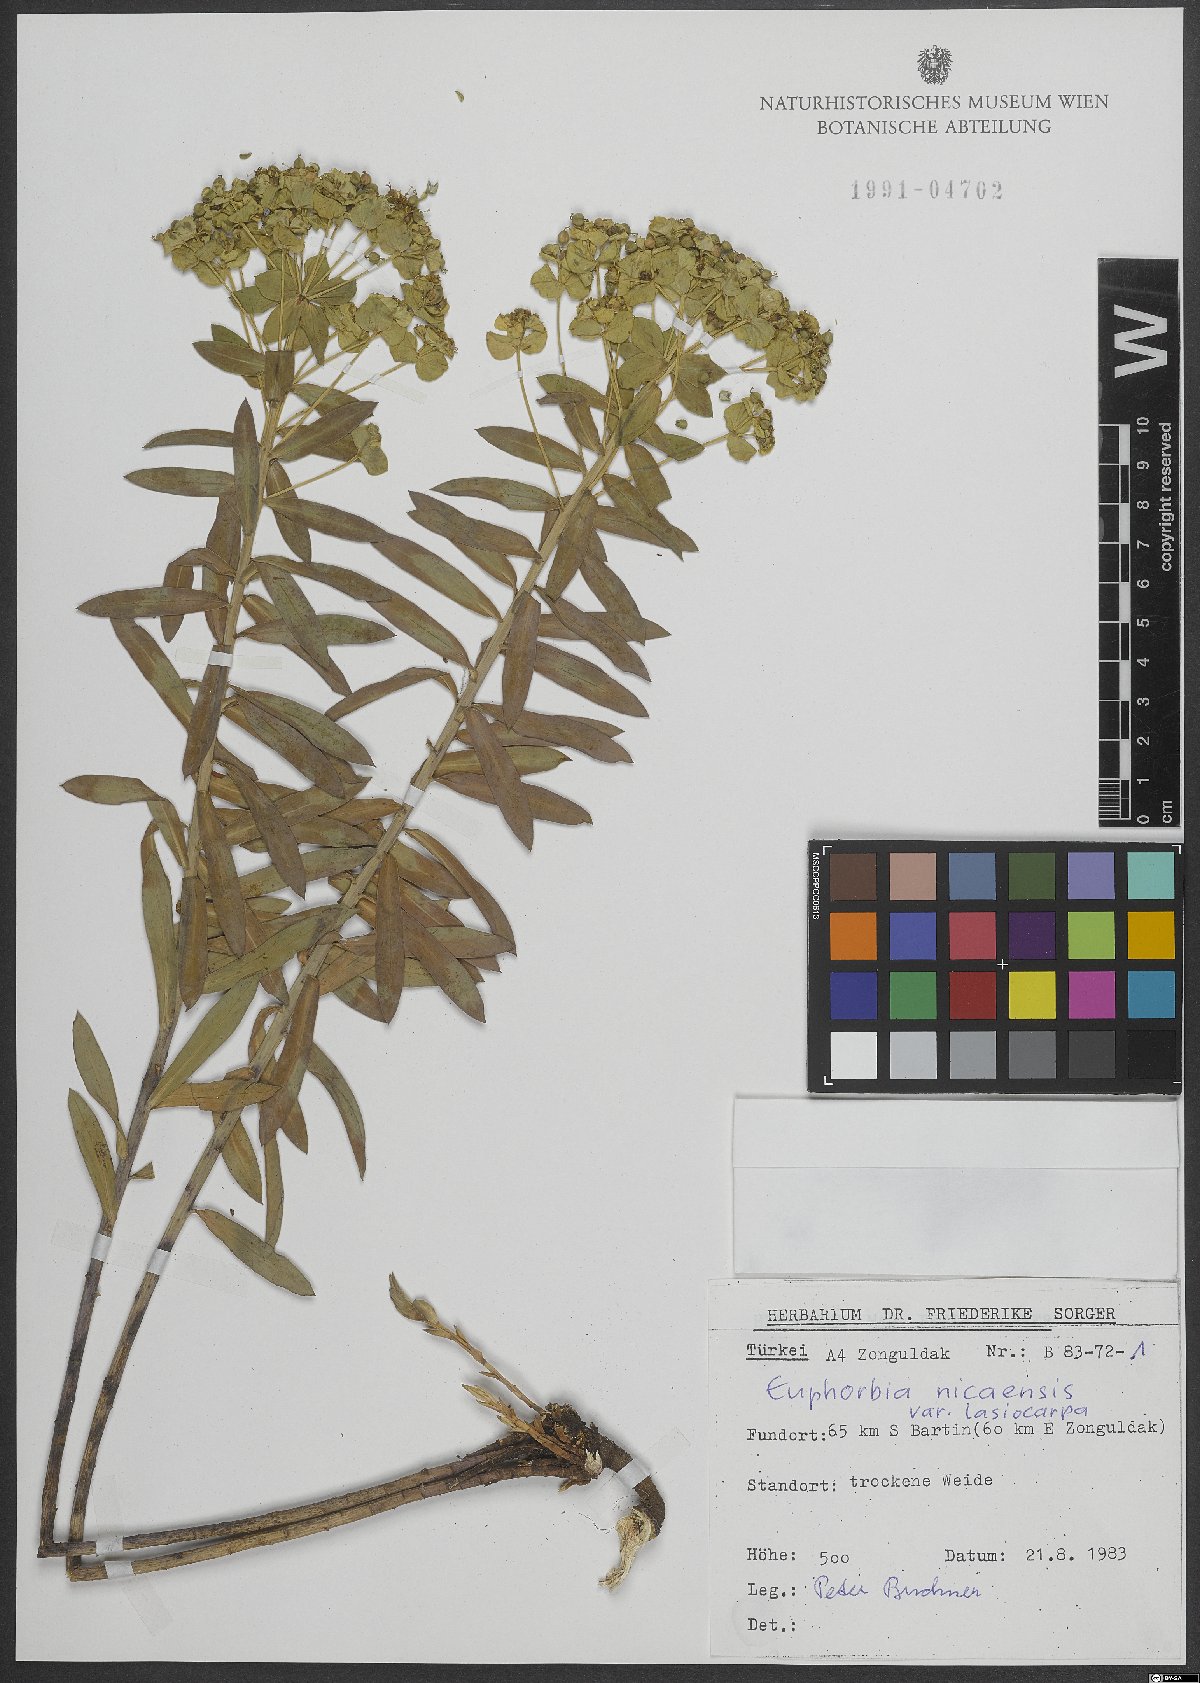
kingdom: Plantae
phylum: Tracheophyta
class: Magnoliopsida
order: Malpighiales
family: Euphorbiaceae
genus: Euphorbia
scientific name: Euphorbia pannonica
